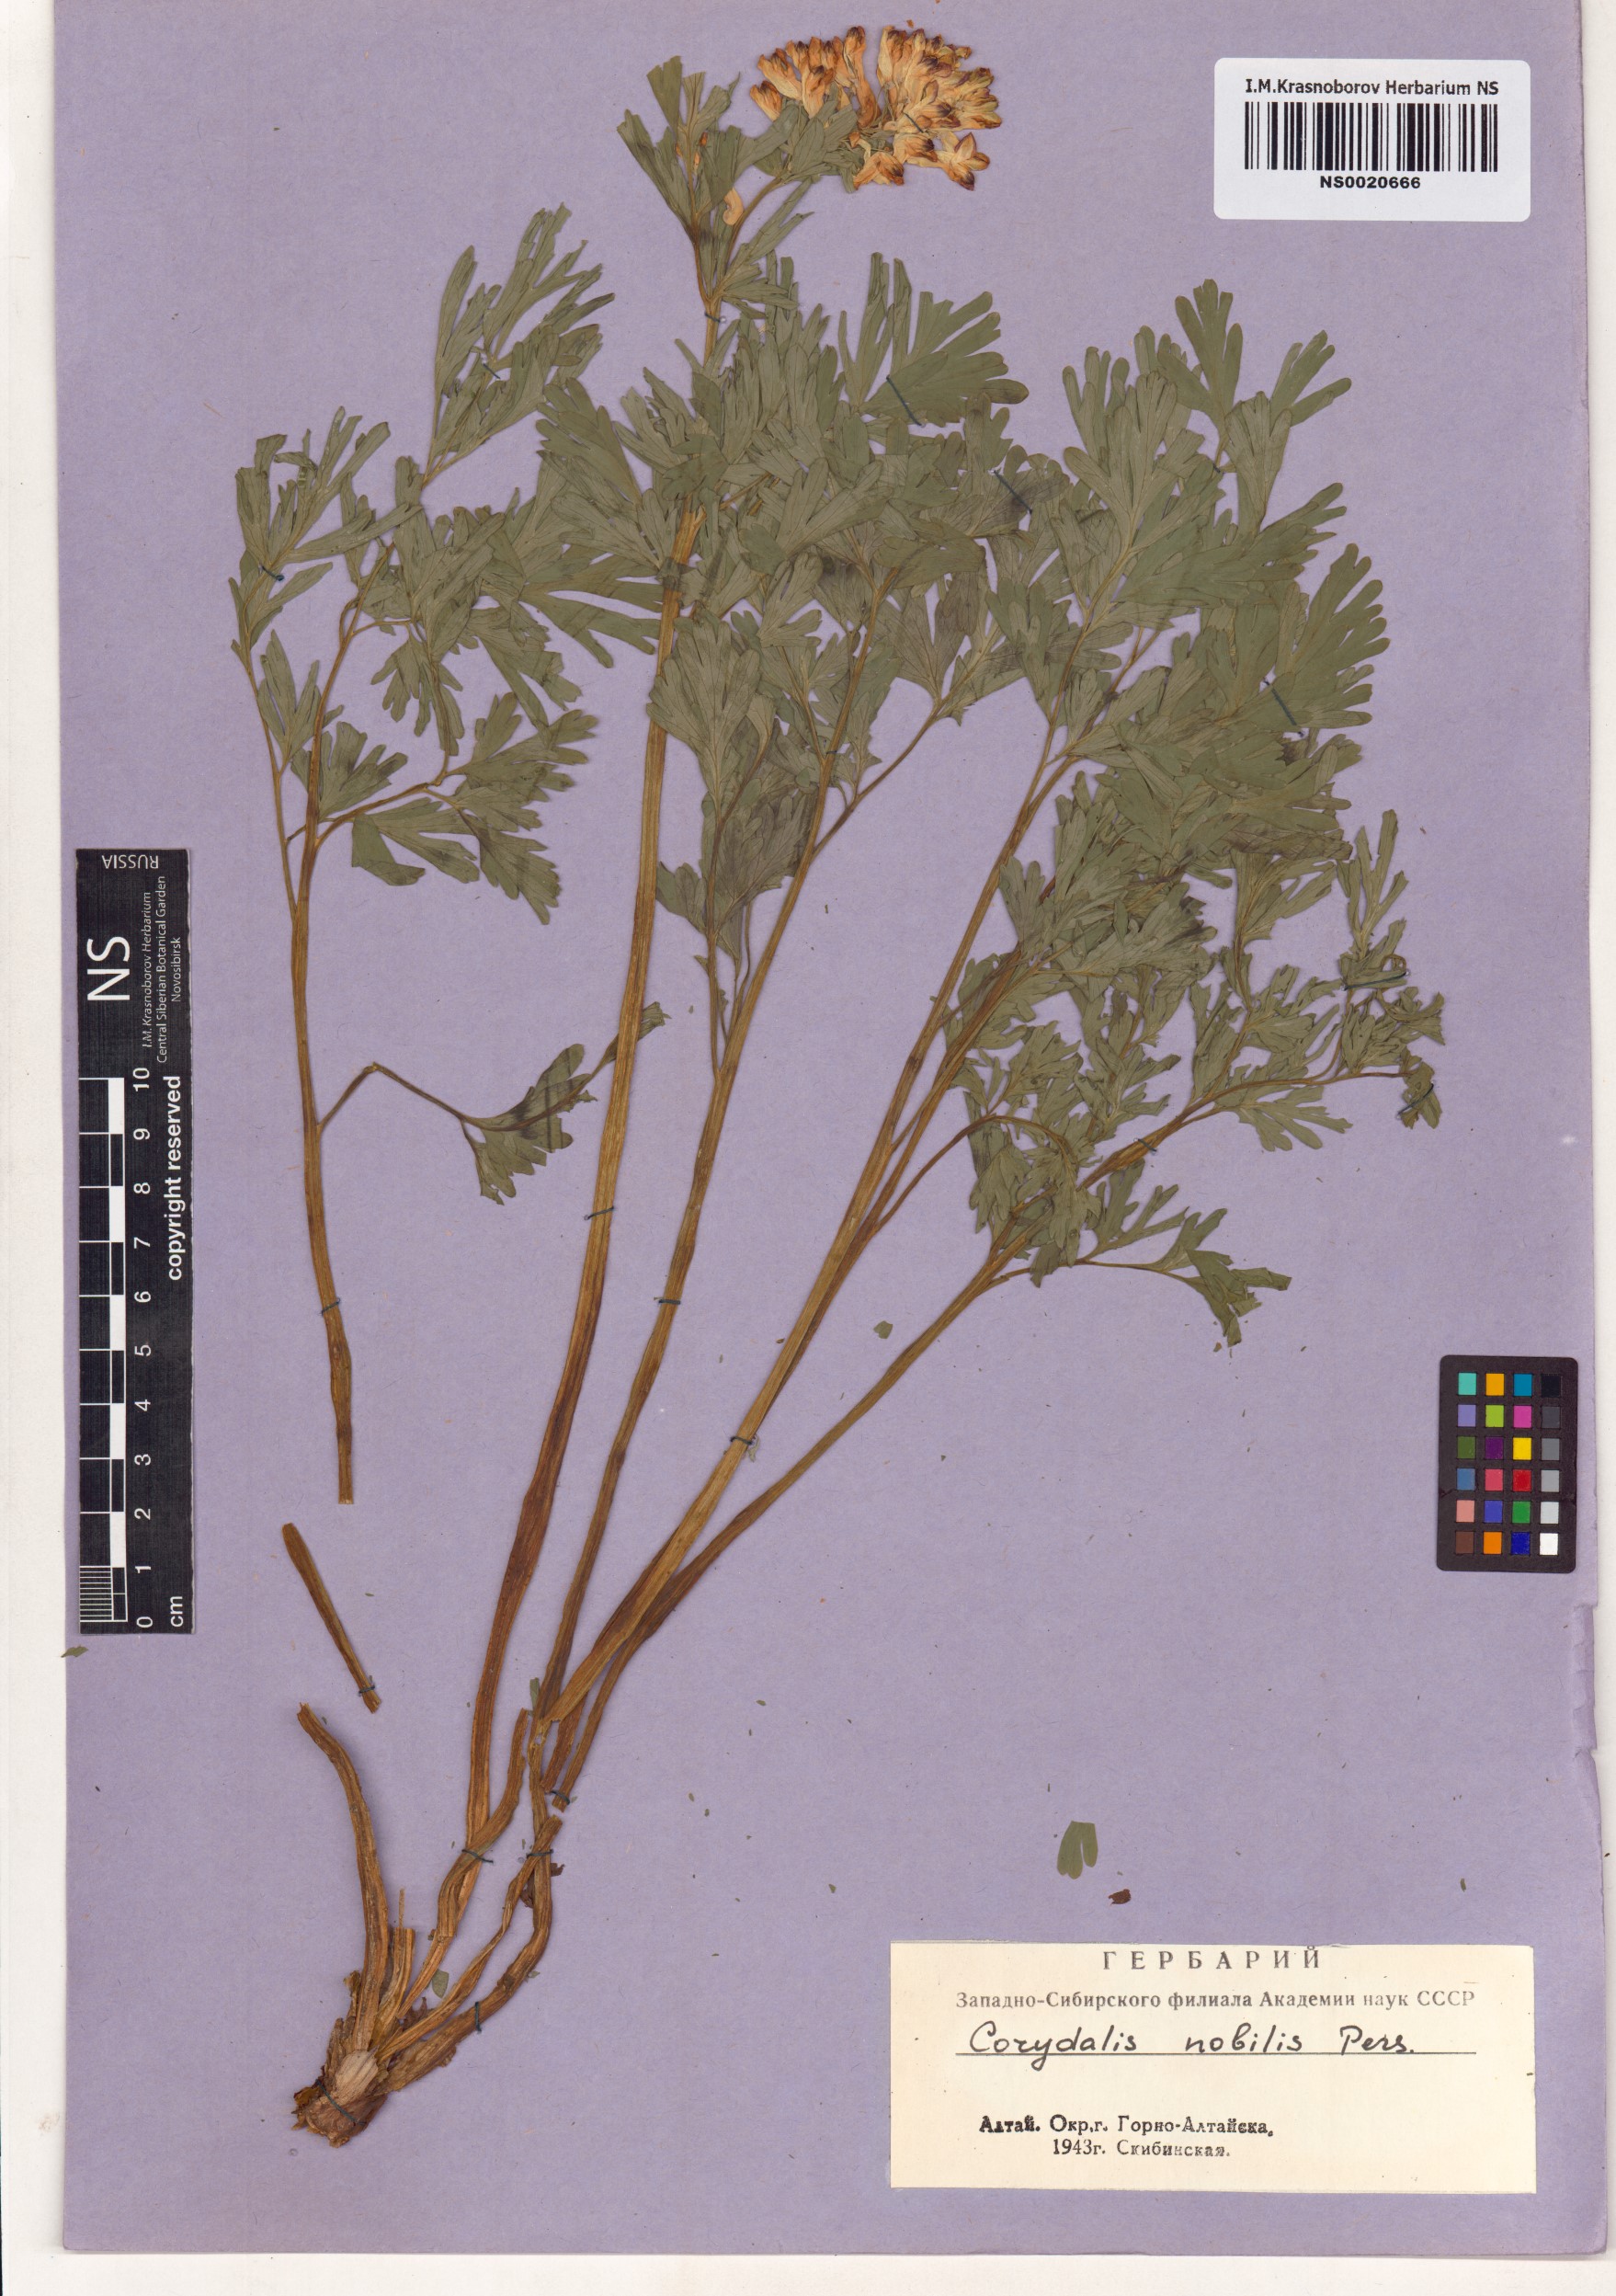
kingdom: Plantae
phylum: Tracheophyta
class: Magnoliopsida
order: Ranunculales
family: Papaveraceae
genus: Corydalis
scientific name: Corydalis nobilis
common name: Siberian corydalis
